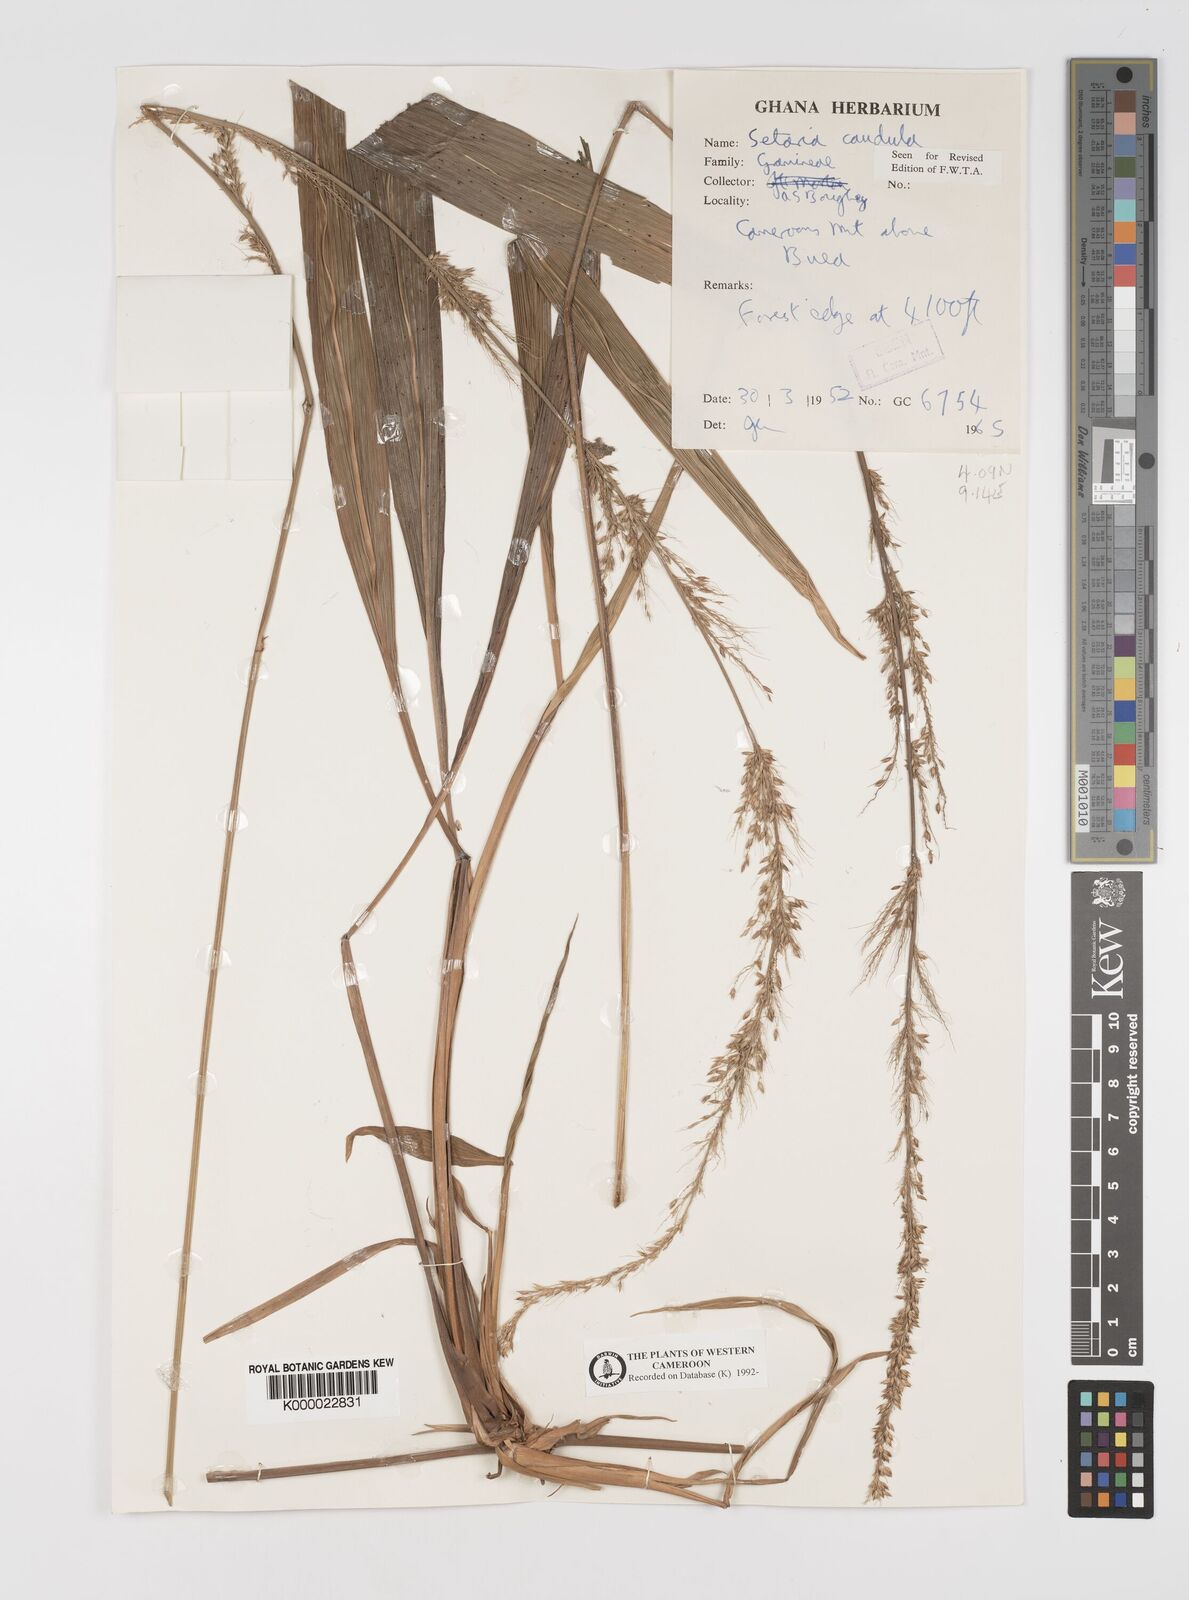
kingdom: Plantae
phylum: Tracheophyta
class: Liliopsida
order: Poales
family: Poaceae
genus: Setaria
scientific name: Setaria poiretiana
